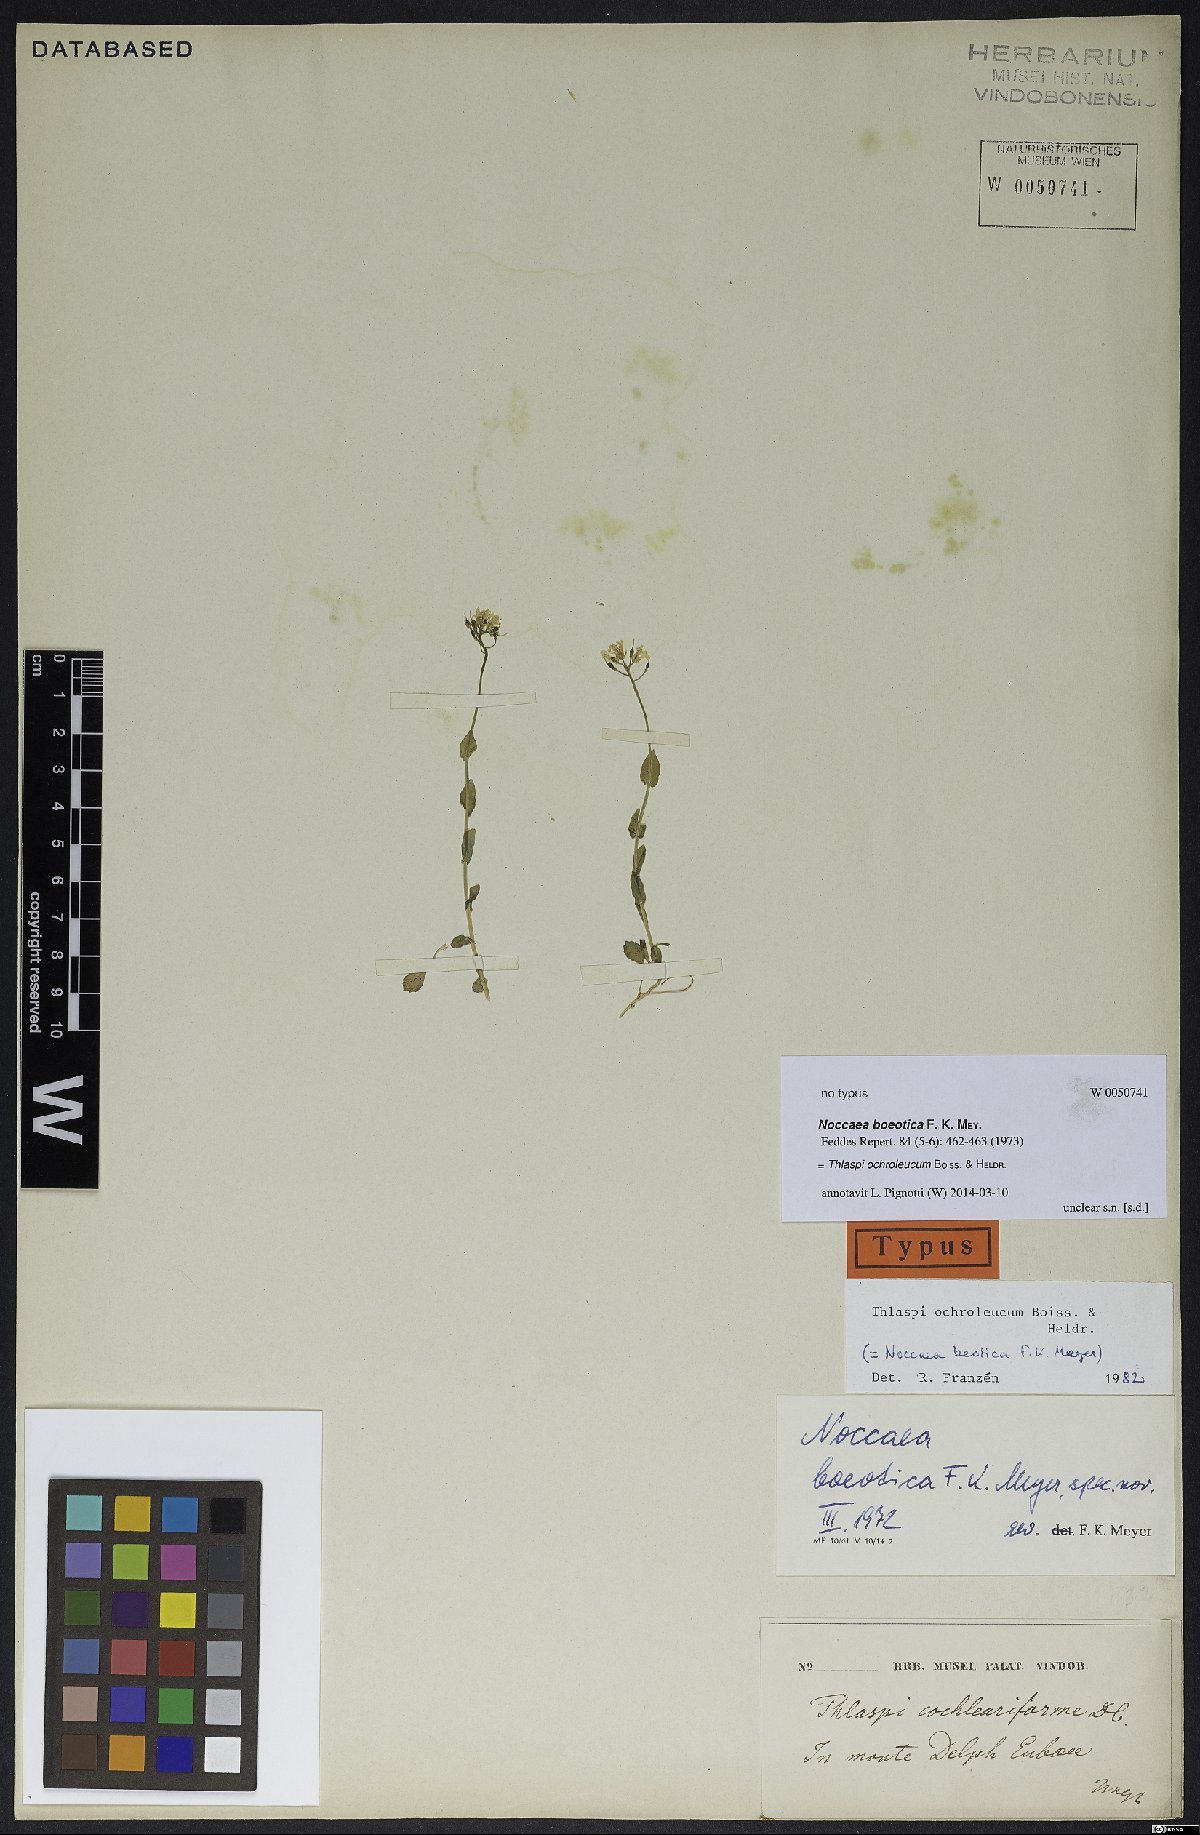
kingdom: Plantae
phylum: Tracheophyta
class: Magnoliopsida
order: Brassicales
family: Brassicaceae
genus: Noccaea
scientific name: Noccaea ochroleuca
